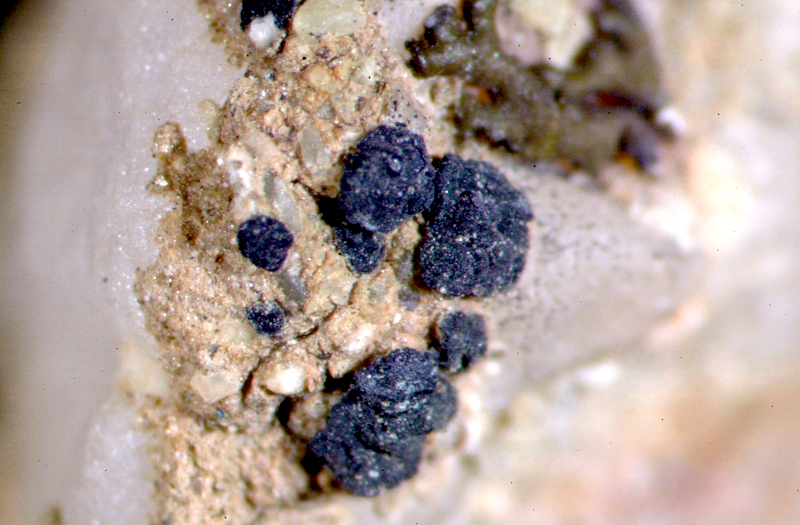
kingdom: Fungi
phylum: Ascomycota
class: Lecanoromycetes
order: Lecanorales
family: Parmeliaceae
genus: Xanthoparmelia
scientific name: Xanthoparmelia walteri
